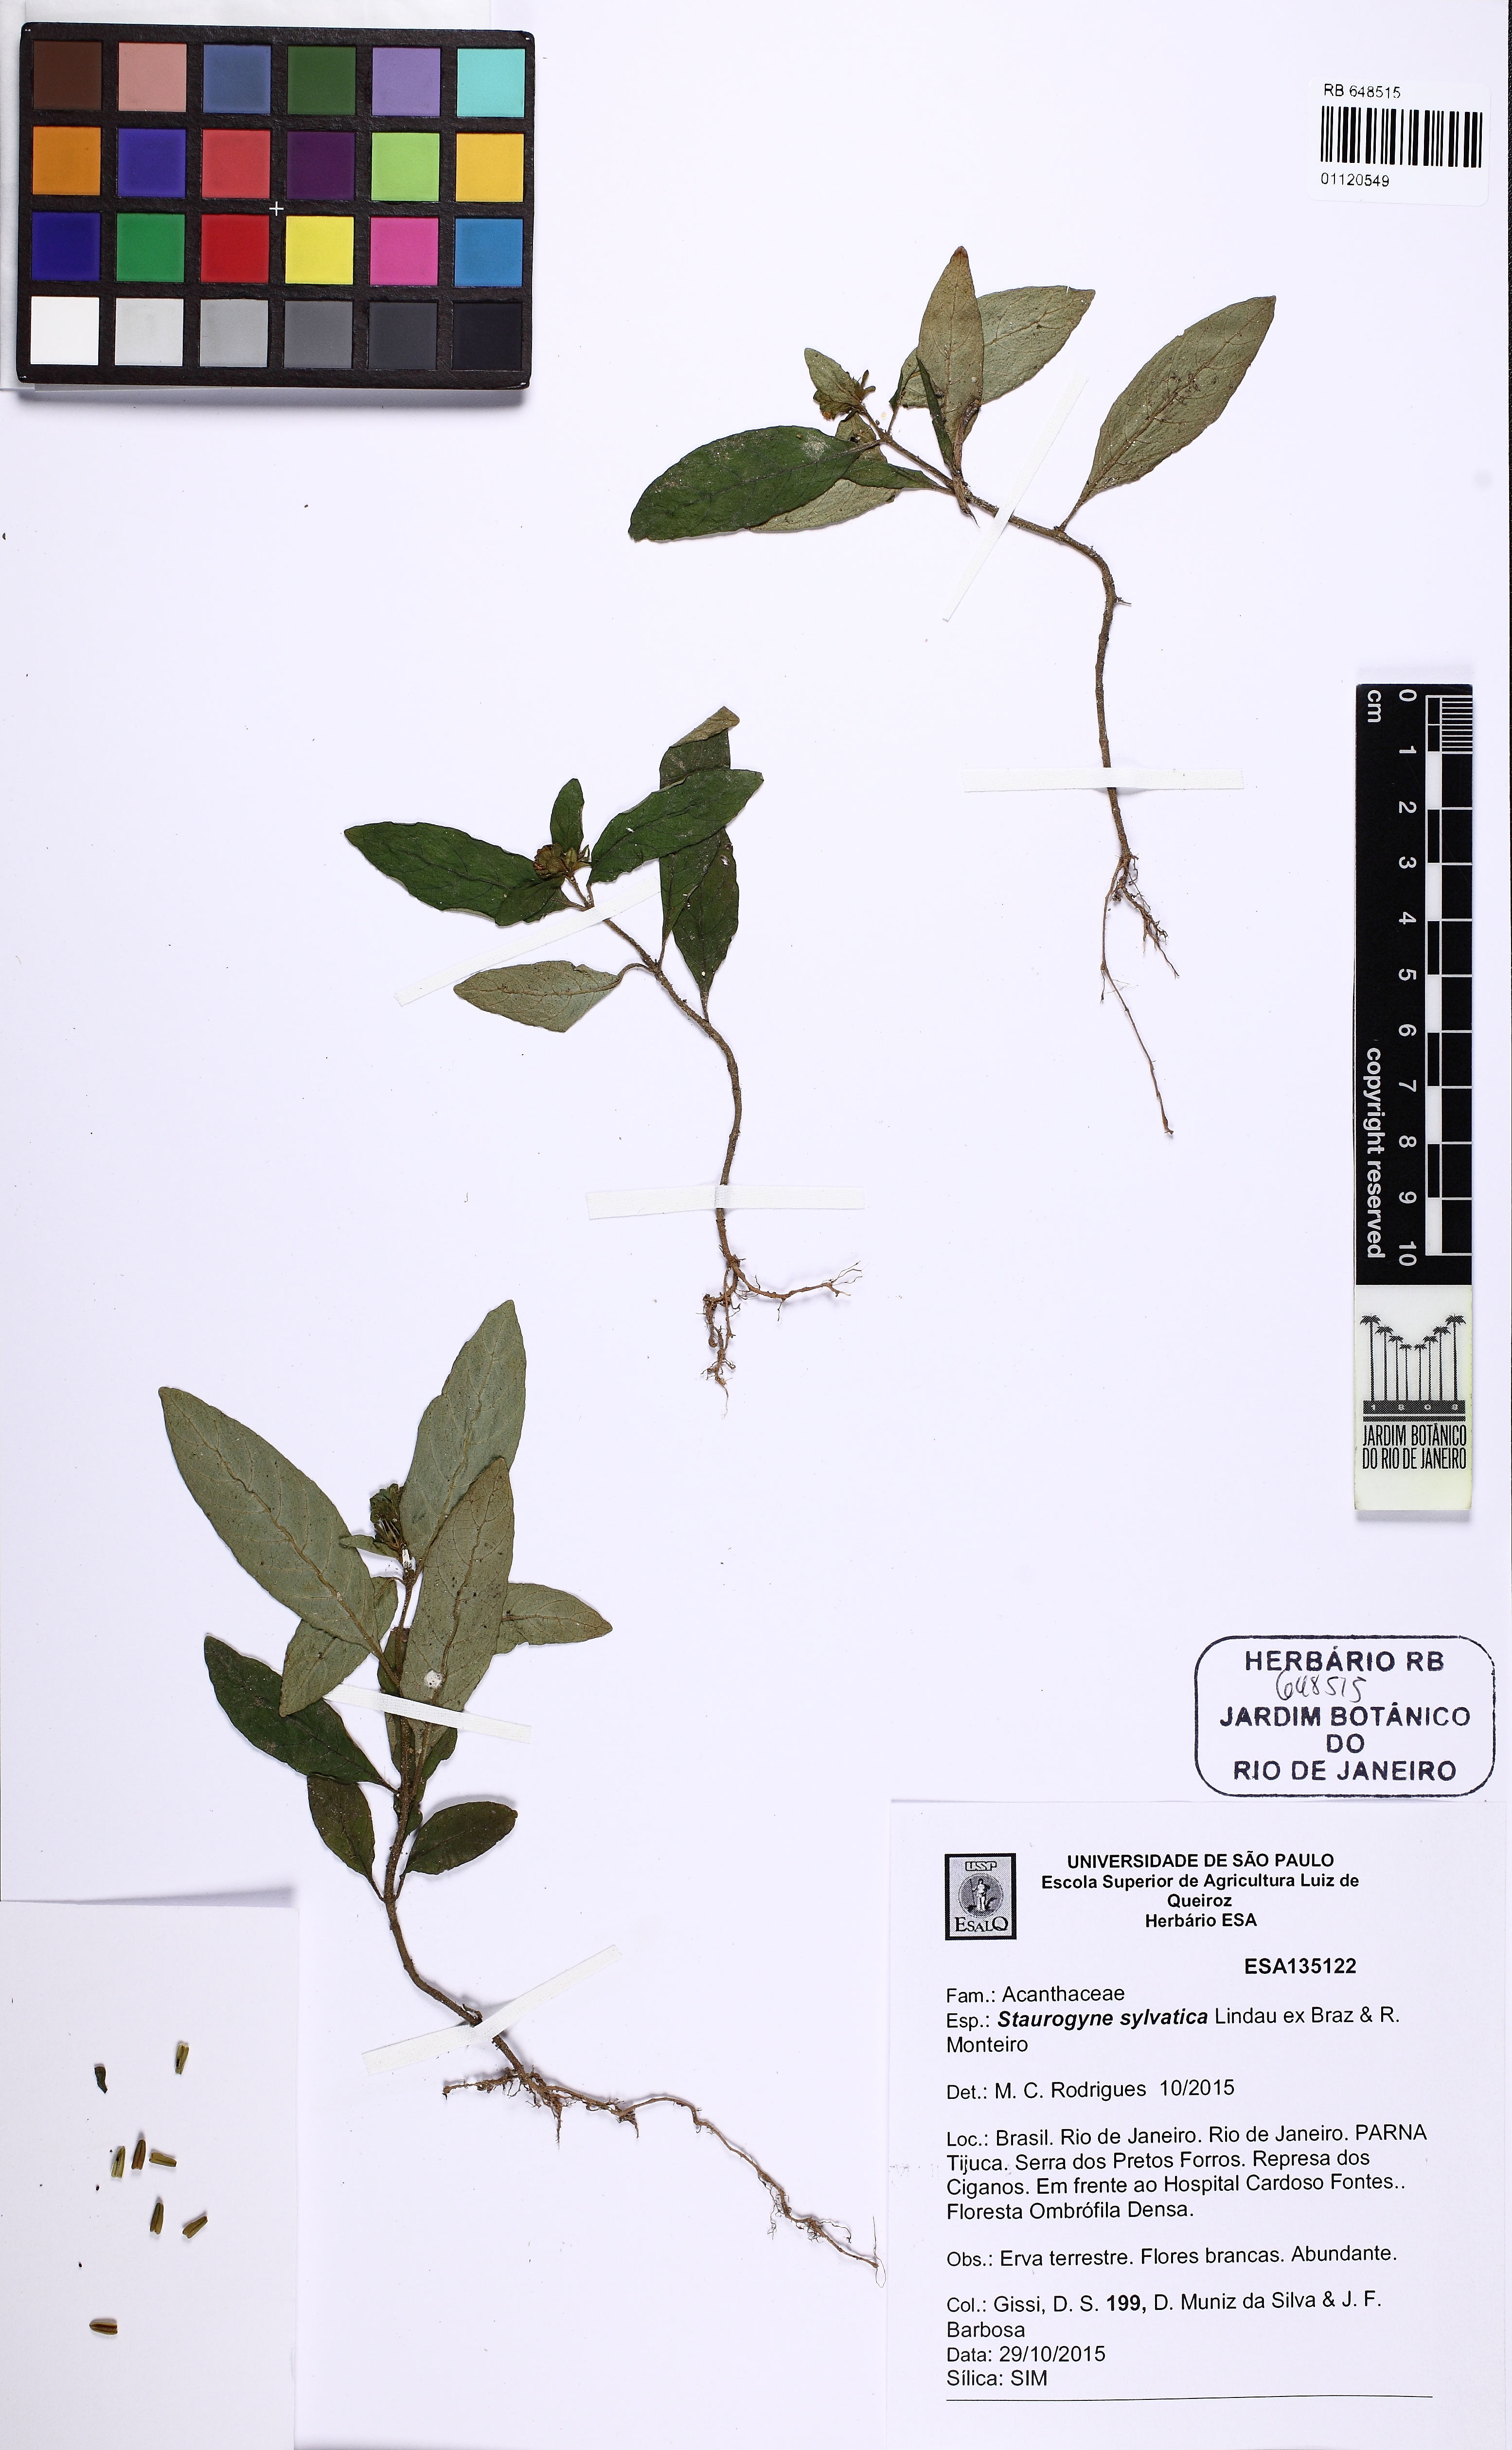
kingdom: Plantae
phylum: Tracheophyta
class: Magnoliopsida
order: Lamiales
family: Acanthaceae
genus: Staurogyne
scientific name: Staurogyne sylvatica
